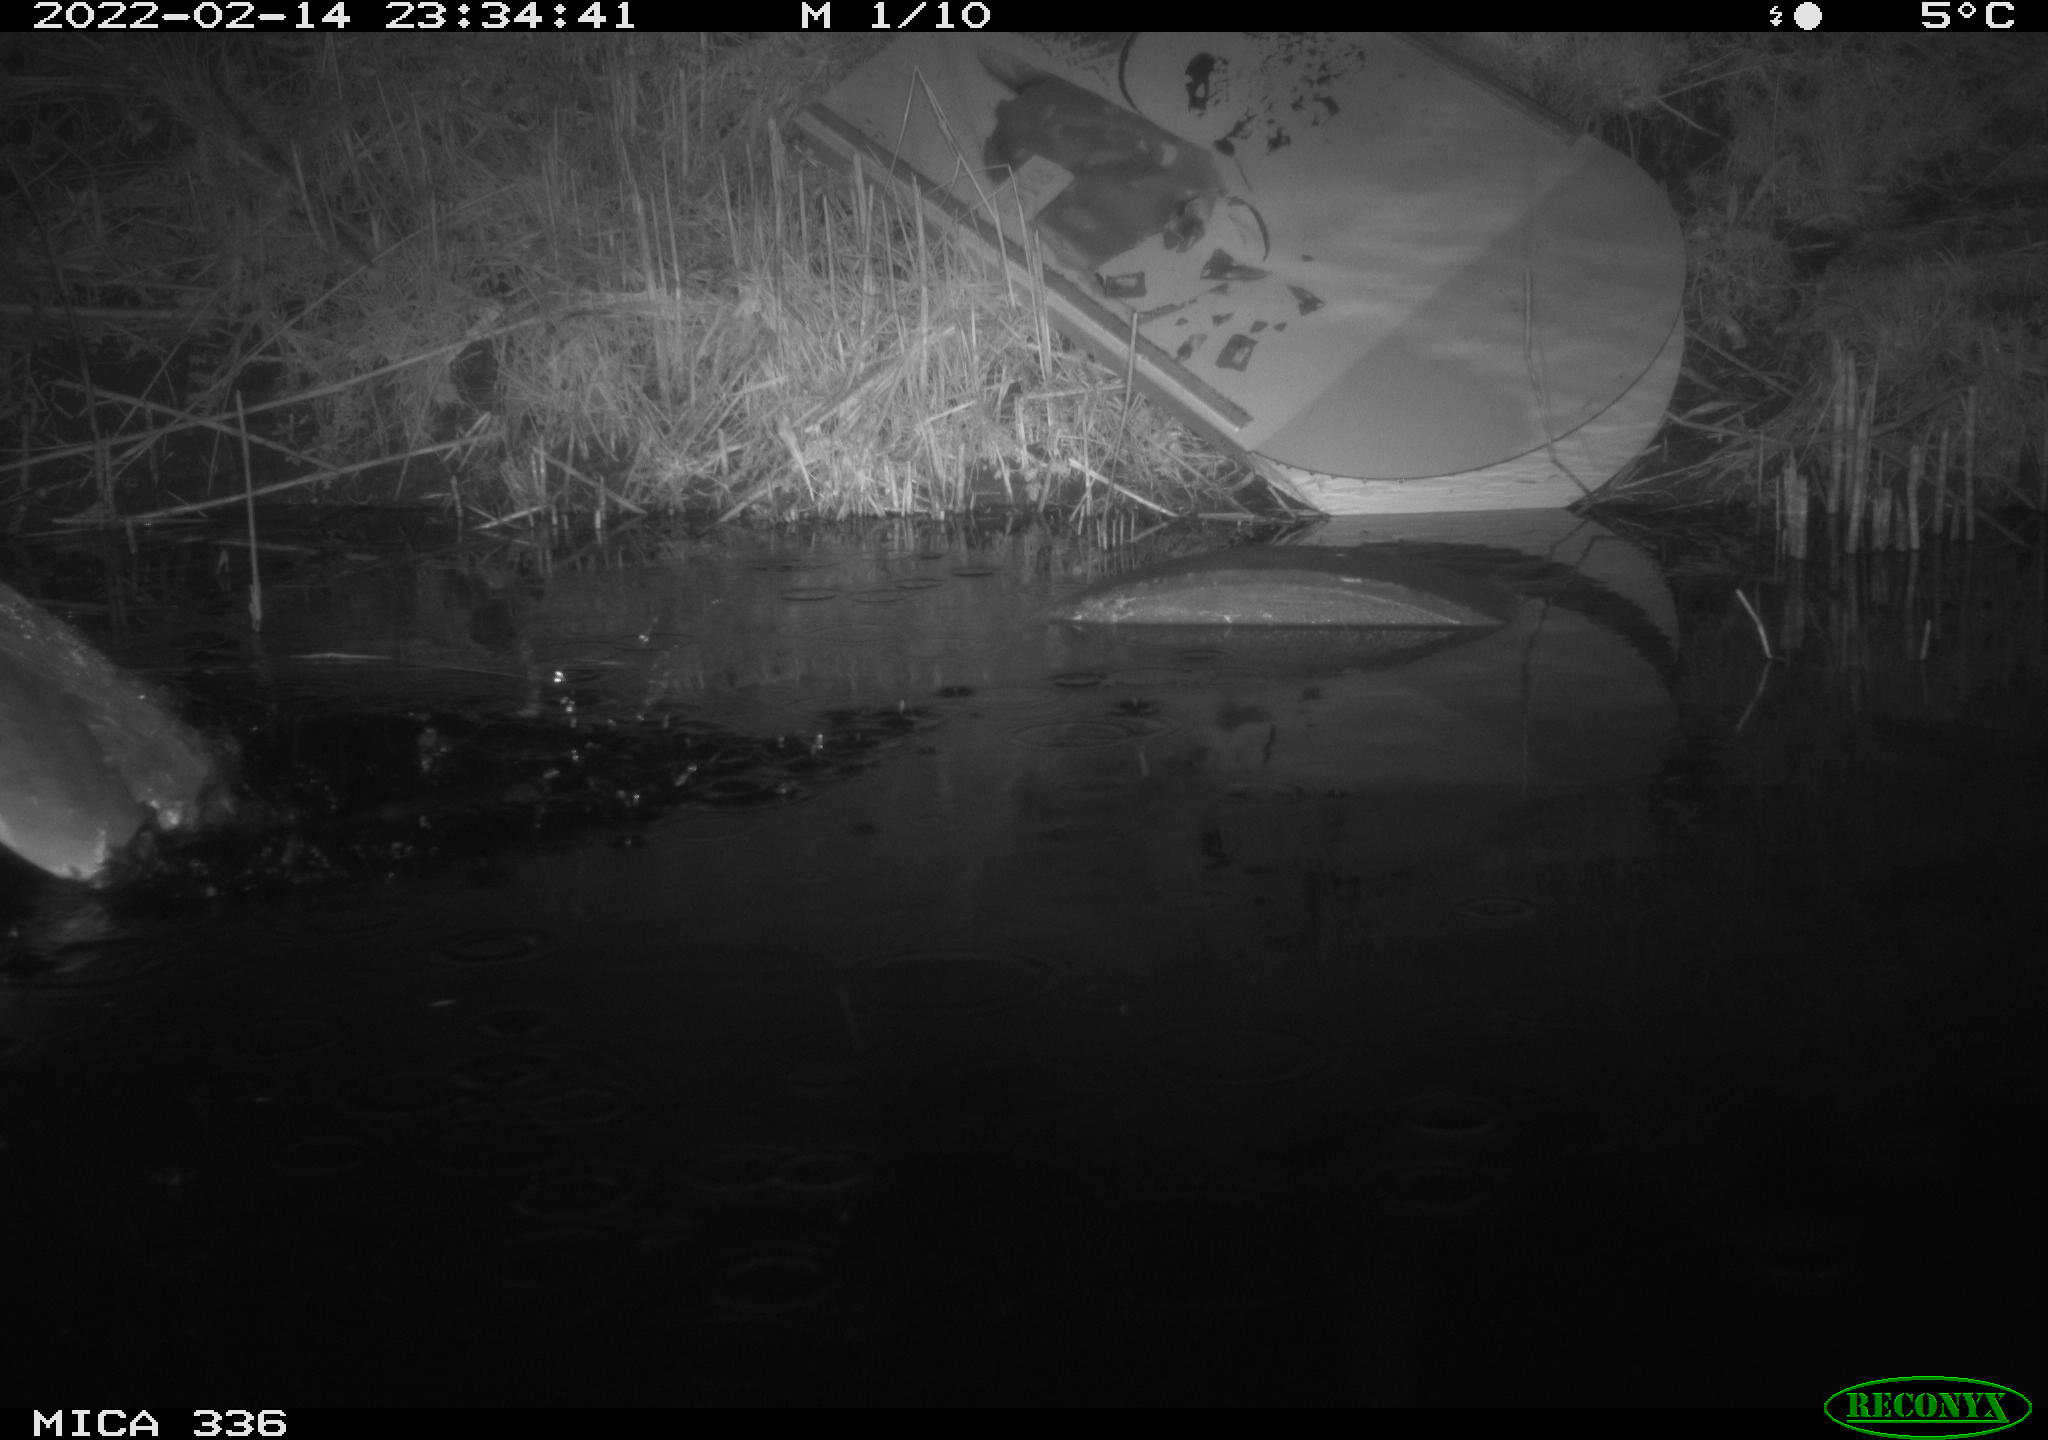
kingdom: Animalia
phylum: Chordata
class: Aves
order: Pelecaniformes
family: Ardeidae
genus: Ardea
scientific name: Ardea cinerea
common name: Grey heron
